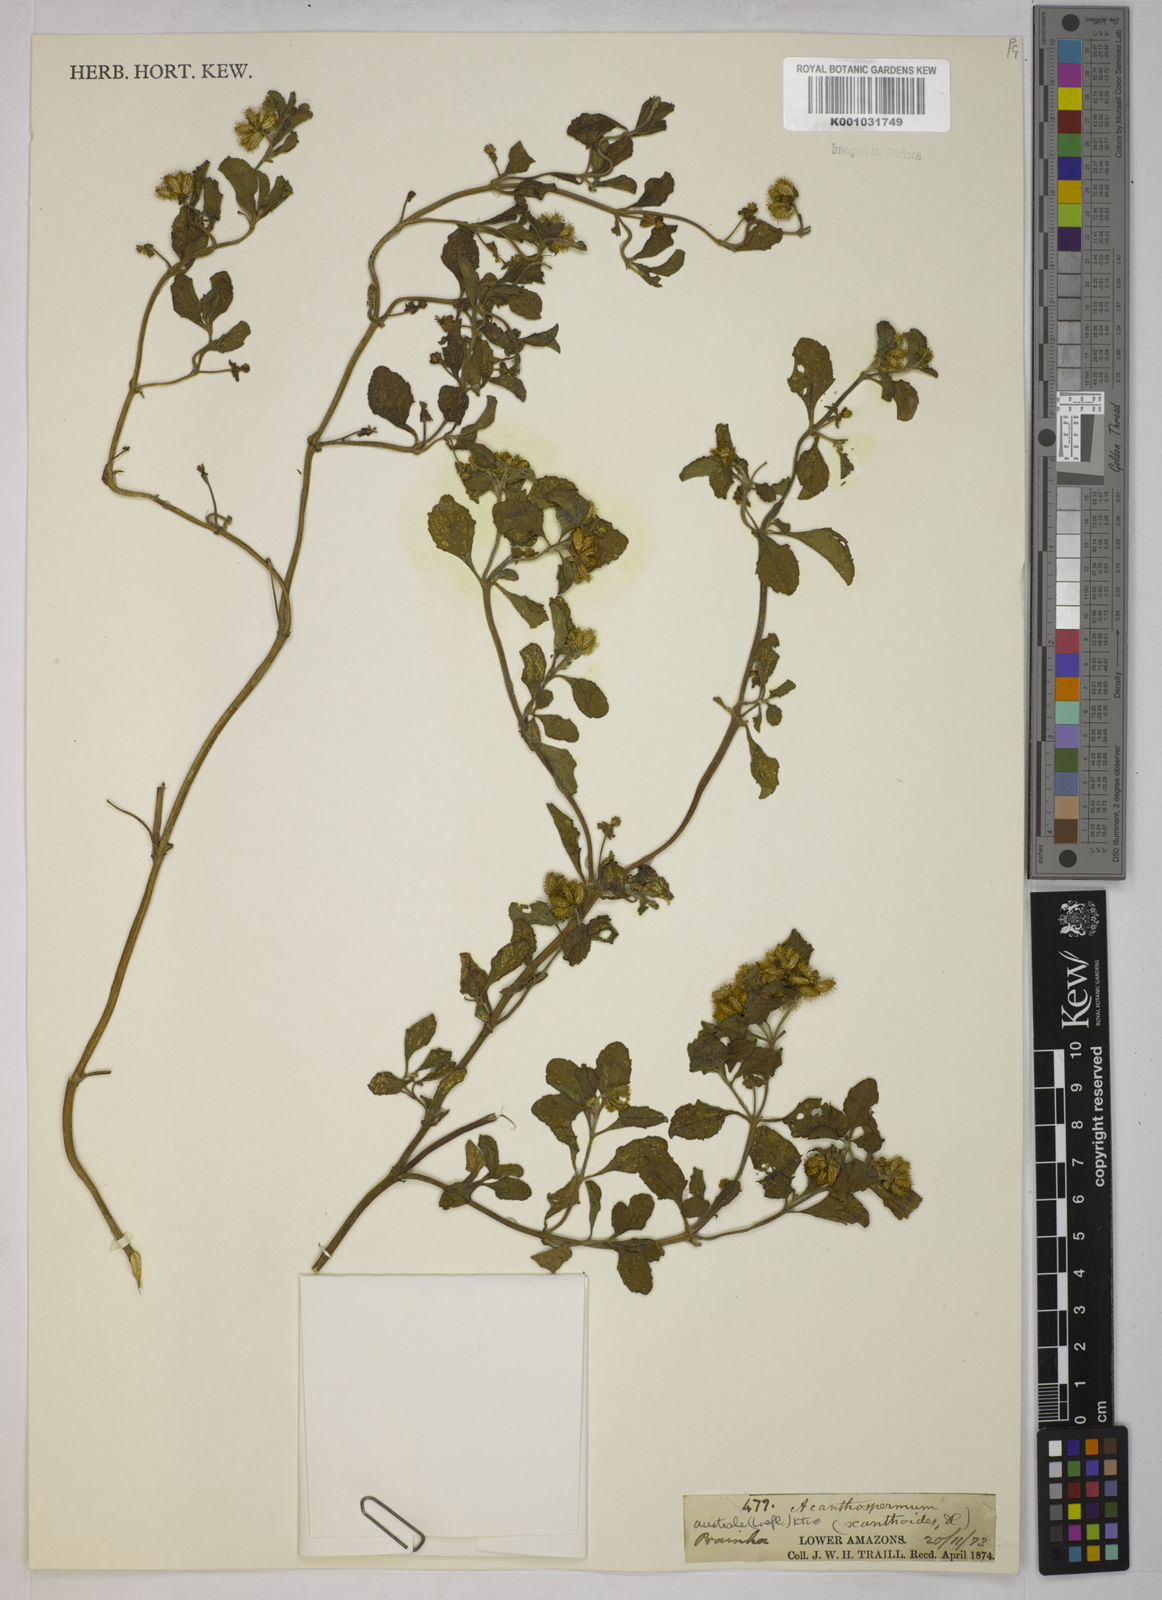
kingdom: Plantae
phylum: Tracheophyta
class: Magnoliopsida
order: Asterales
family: Asteraceae
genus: Acanthospermum
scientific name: Acanthospermum australe
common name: Paraguayan starbur
